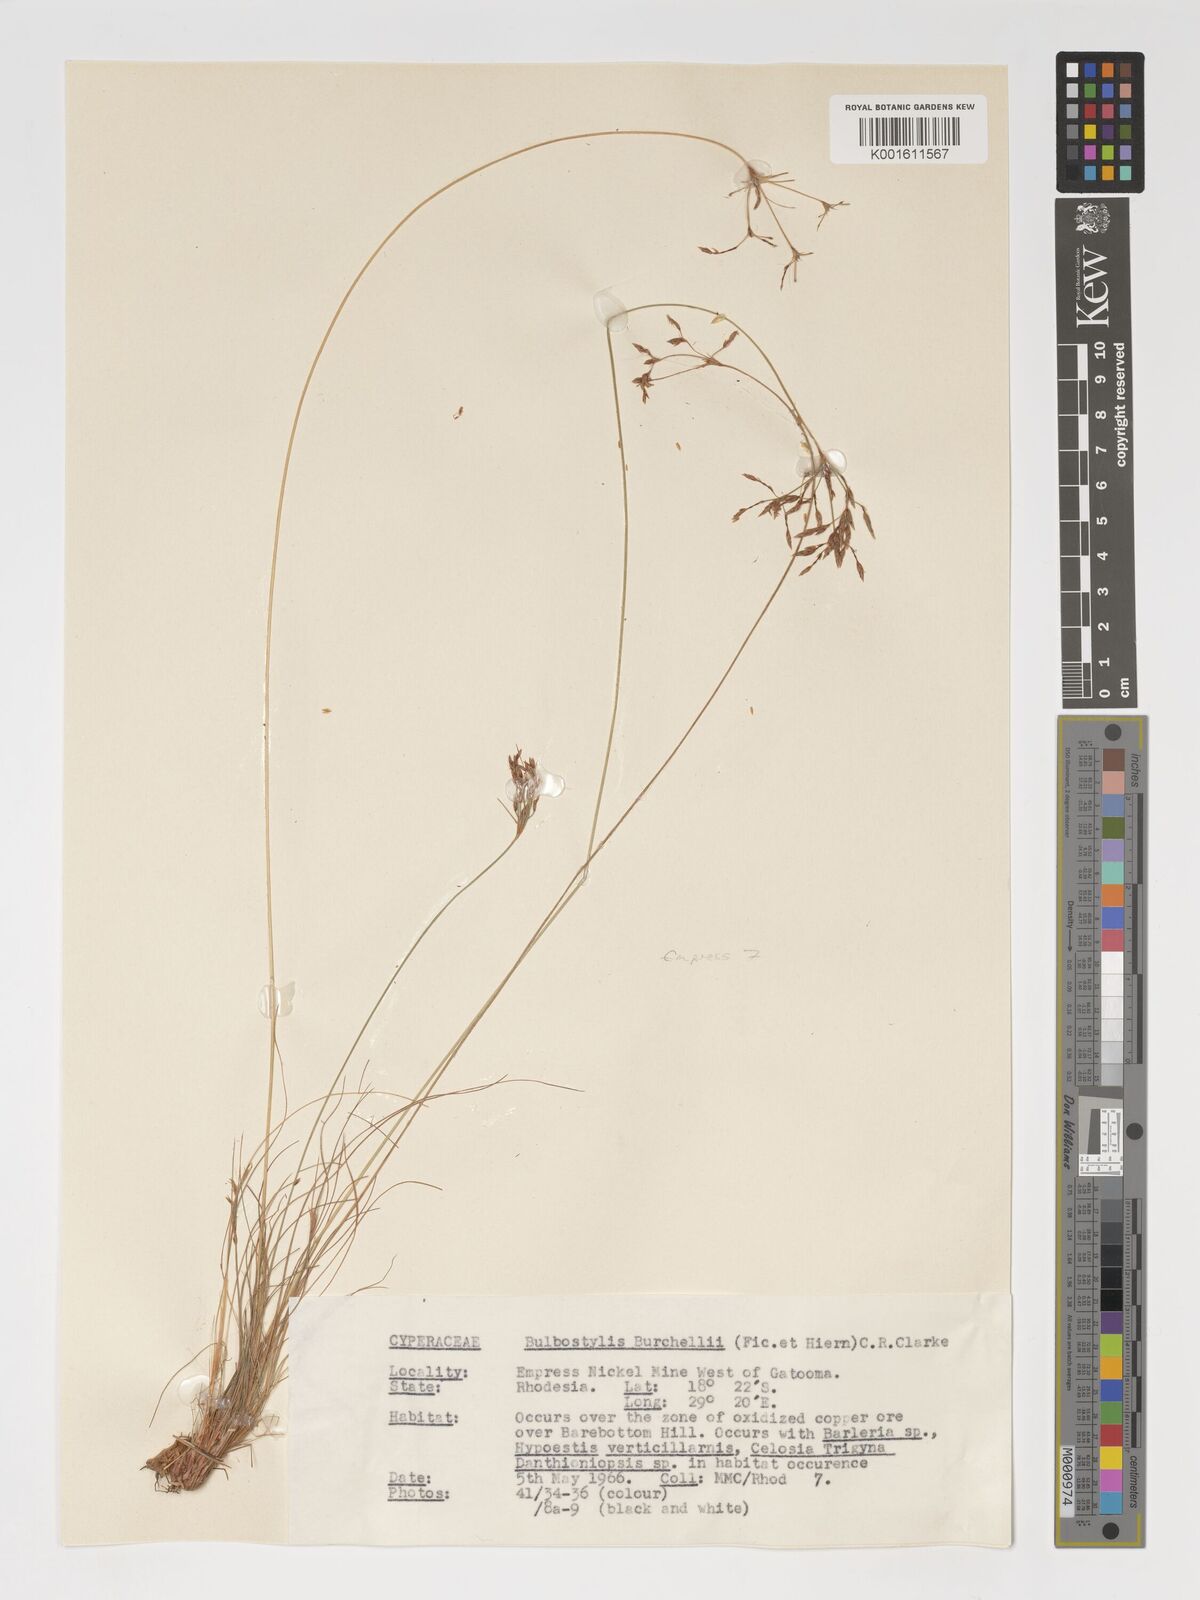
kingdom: Plantae
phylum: Tracheophyta
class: Liliopsida
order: Poales
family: Cyperaceae
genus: Bulbostylis
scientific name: Bulbostylis burchellii
